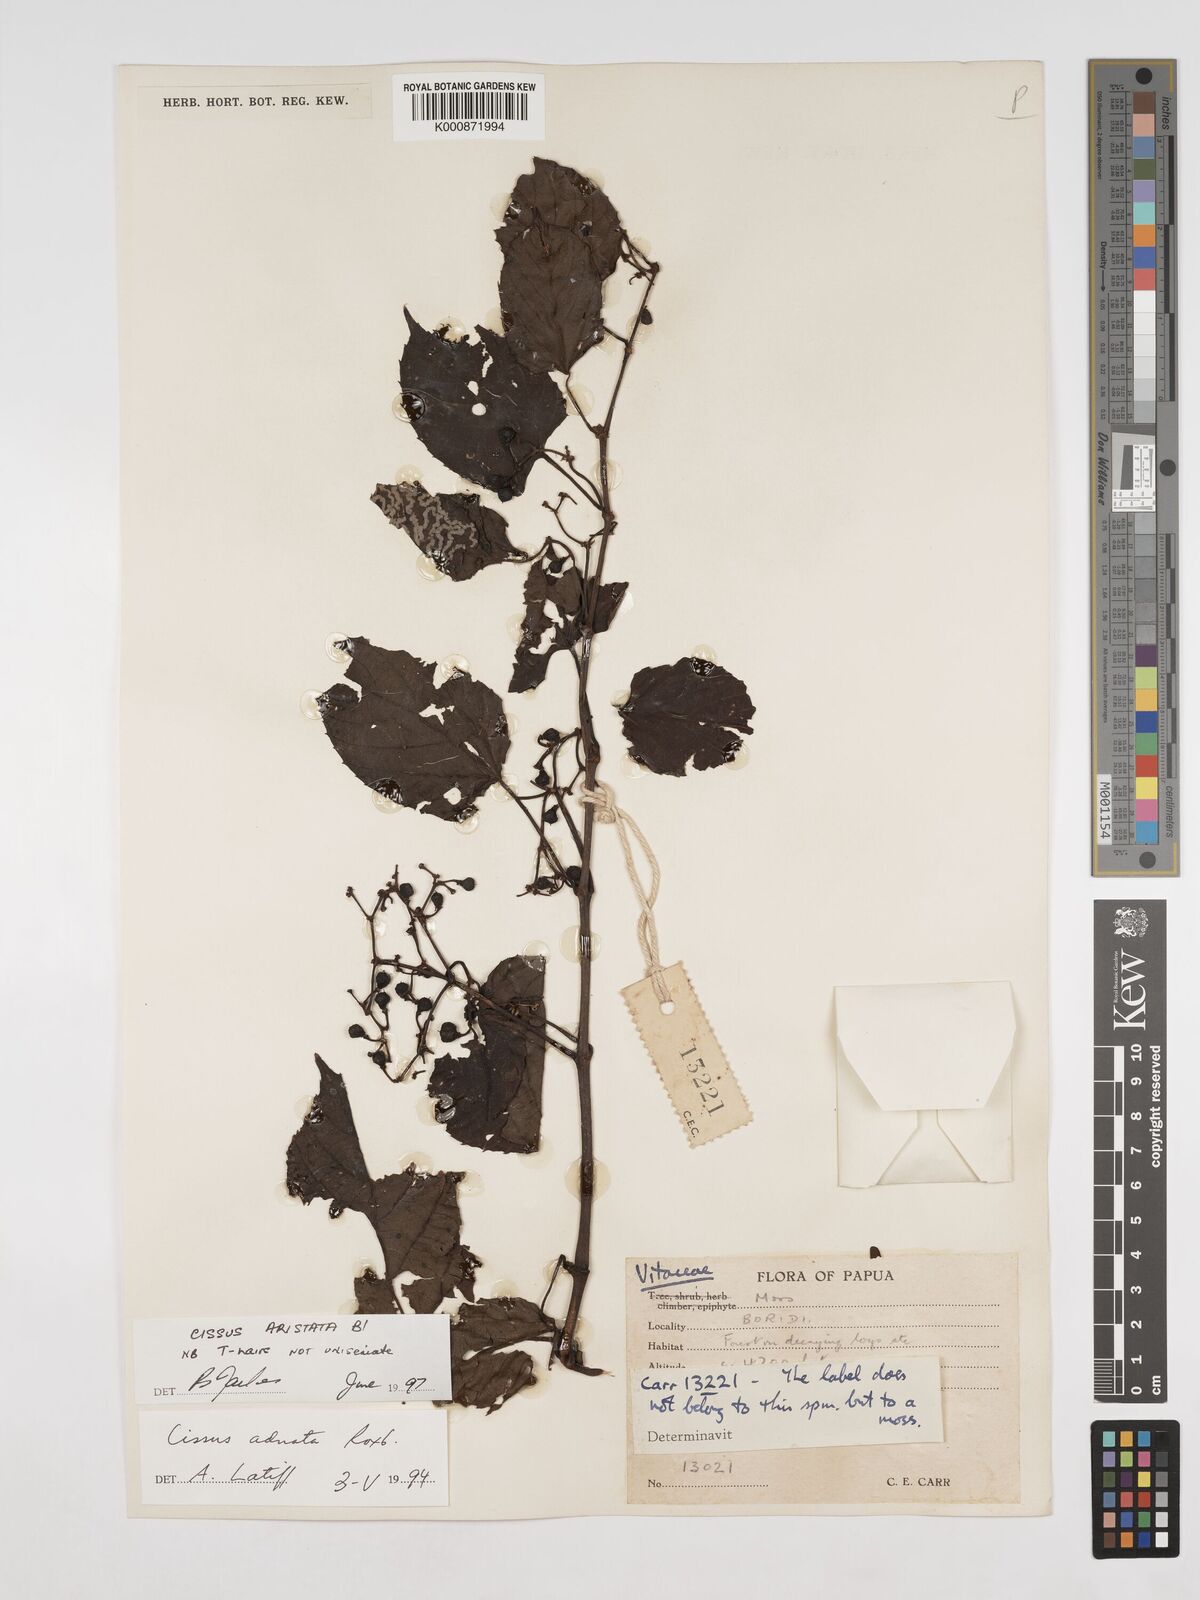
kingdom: Plantae
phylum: Tracheophyta
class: Magnoliopsida
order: Vitales
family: Vitaceae
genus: Cissus
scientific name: Cissus aristata
